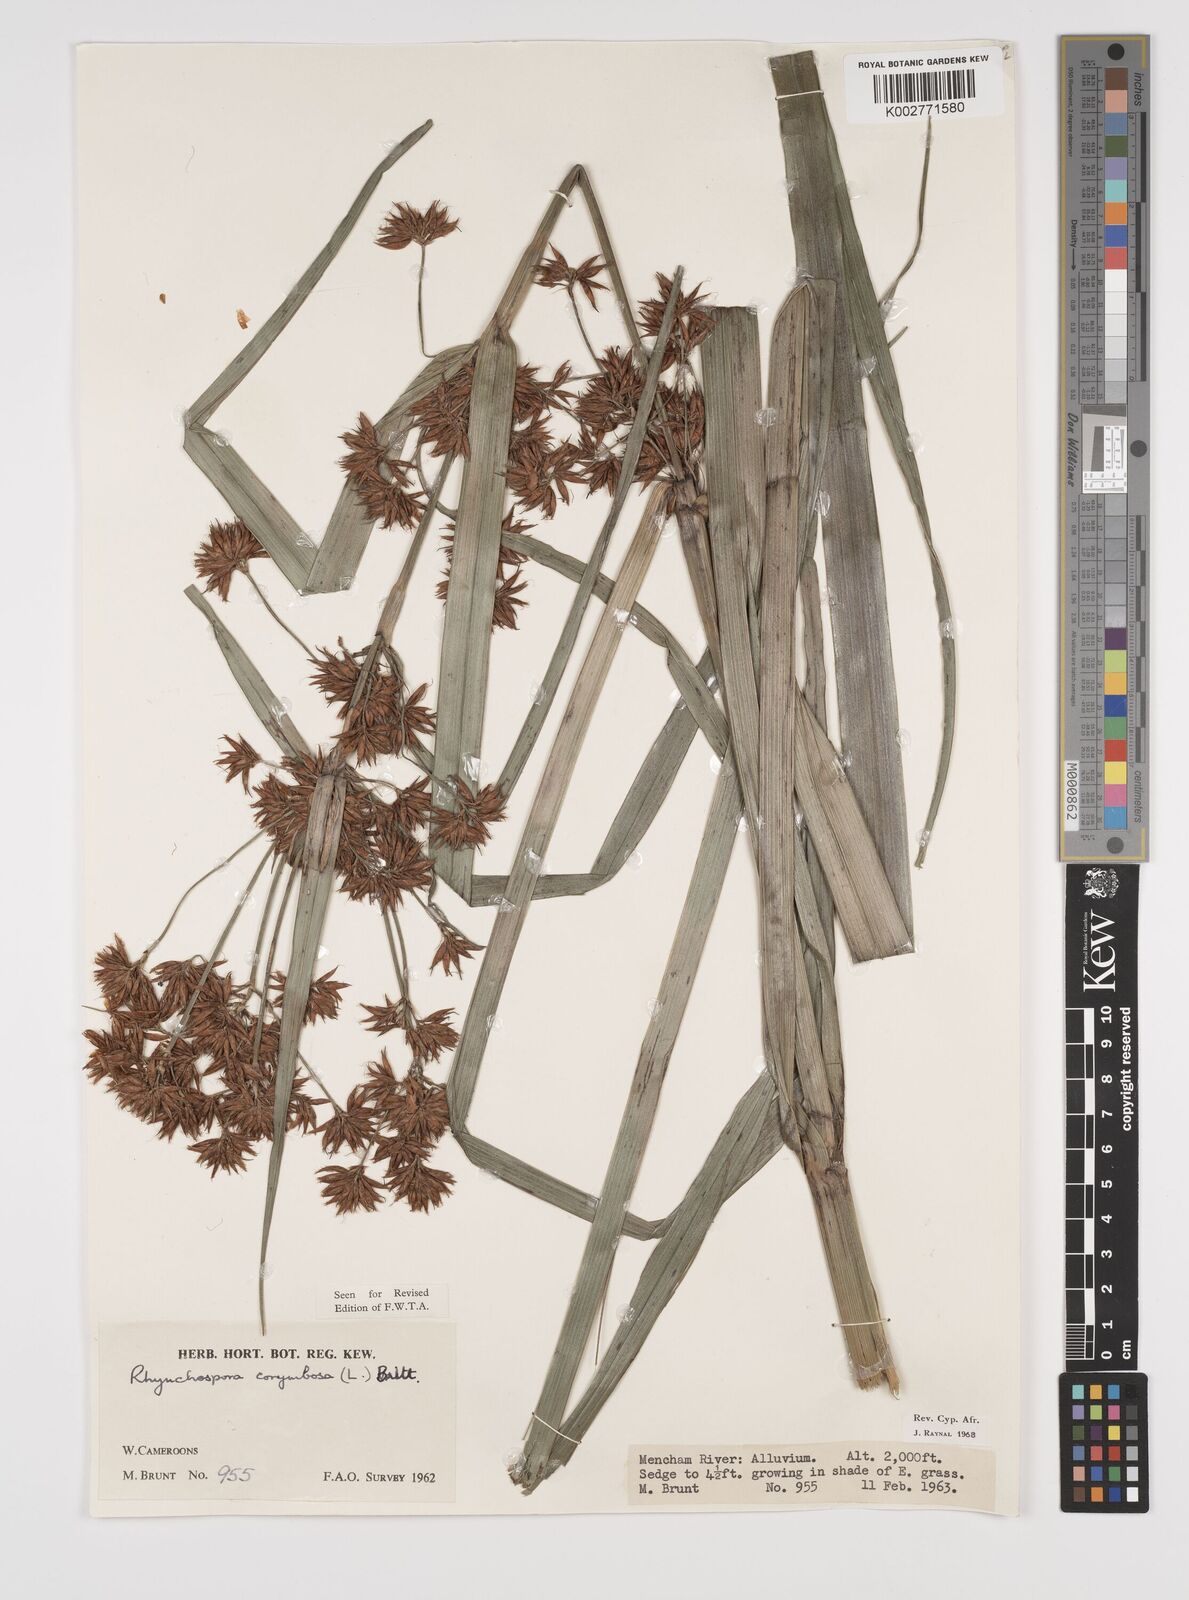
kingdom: Plantae
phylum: Tracheophyta
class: Liliopsida
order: Poales
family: Cyperaceae
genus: Rhynchospora
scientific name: Rhynchospora corymbosa
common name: Golden beak sedge
